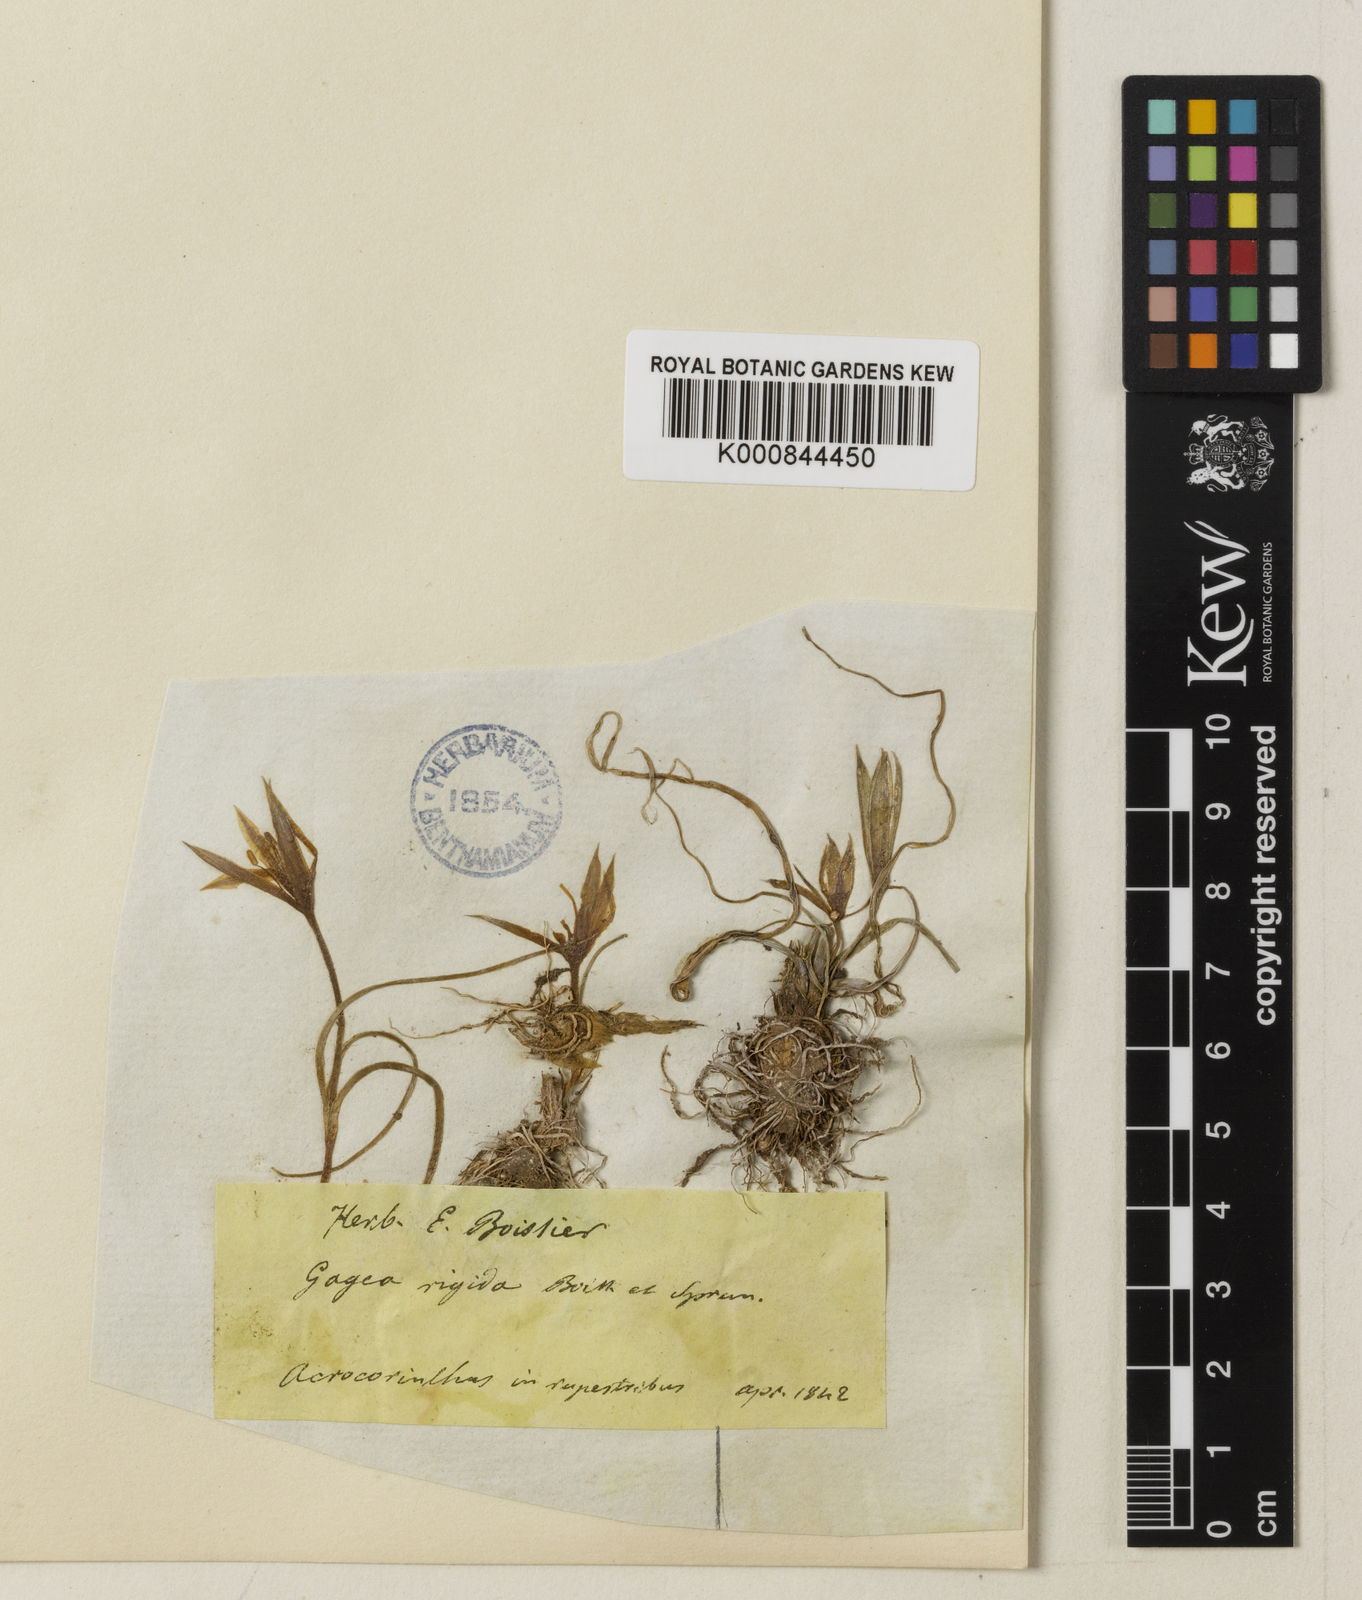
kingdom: Plantae
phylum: Tracheophyta
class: Liliopsida
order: Liliales
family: Liliaceae
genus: Gagea
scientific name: Gagea reticulata
